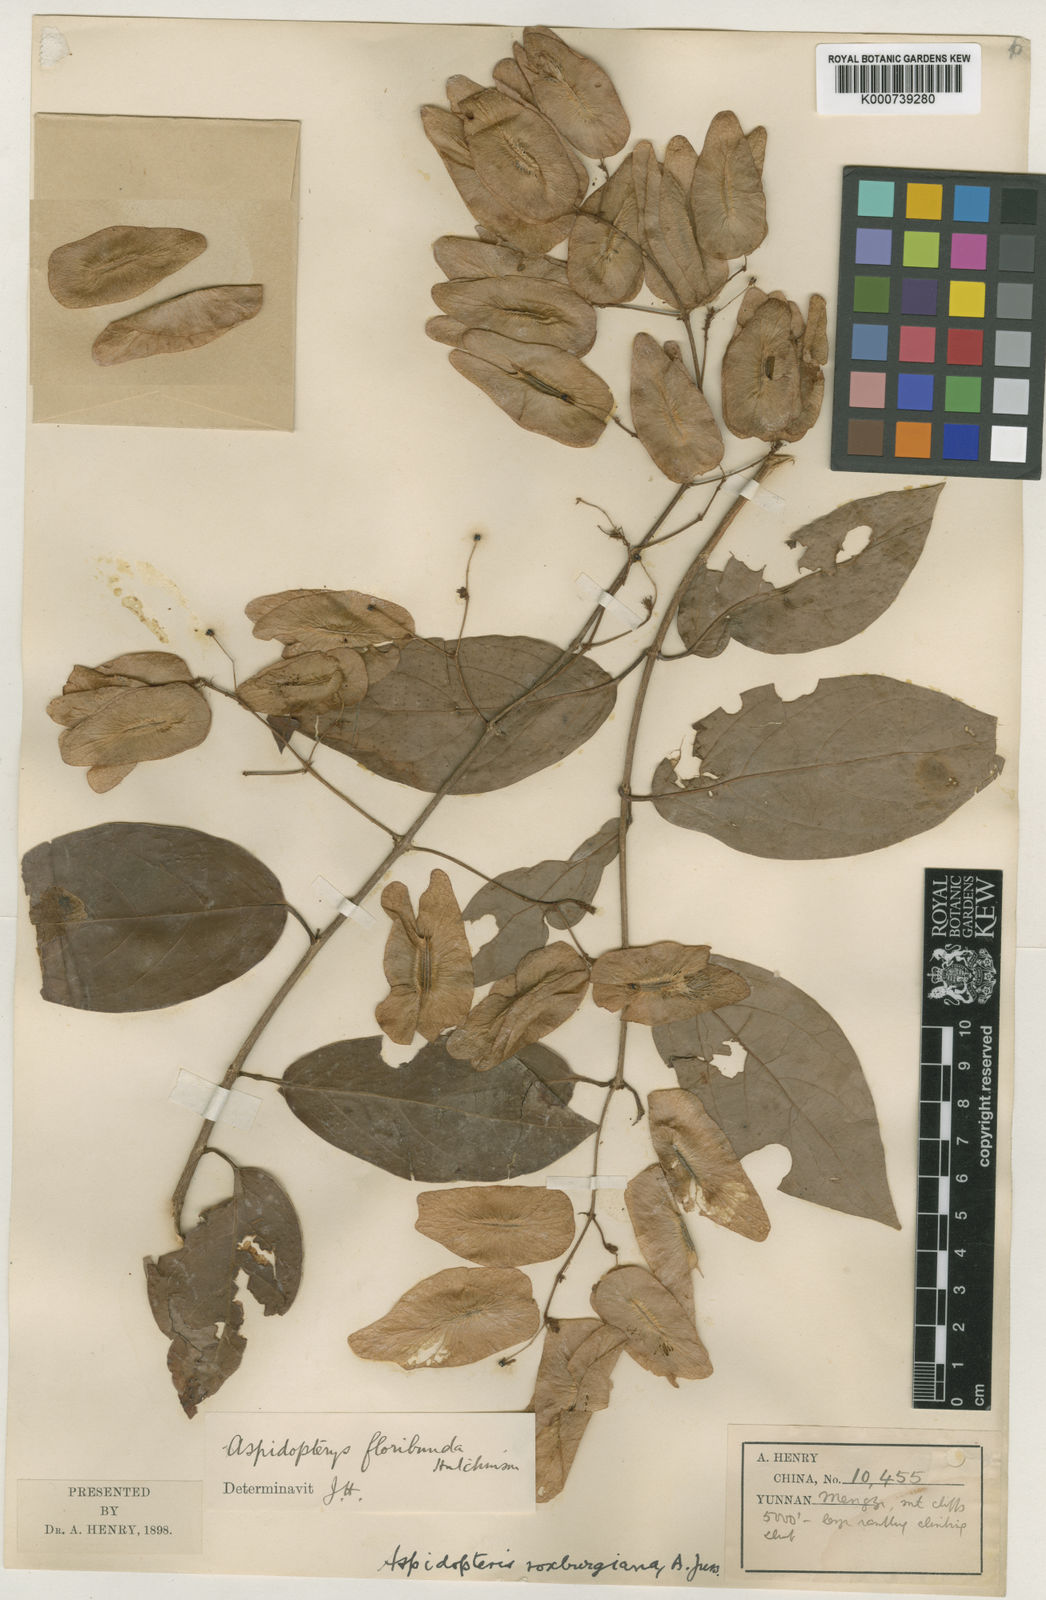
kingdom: Plantae
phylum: Tracheophyta
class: Magnoliopsida
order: Malpighiales
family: Malpighiaceae
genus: Aspidopterys
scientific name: Aspidopterys glabriuscula
